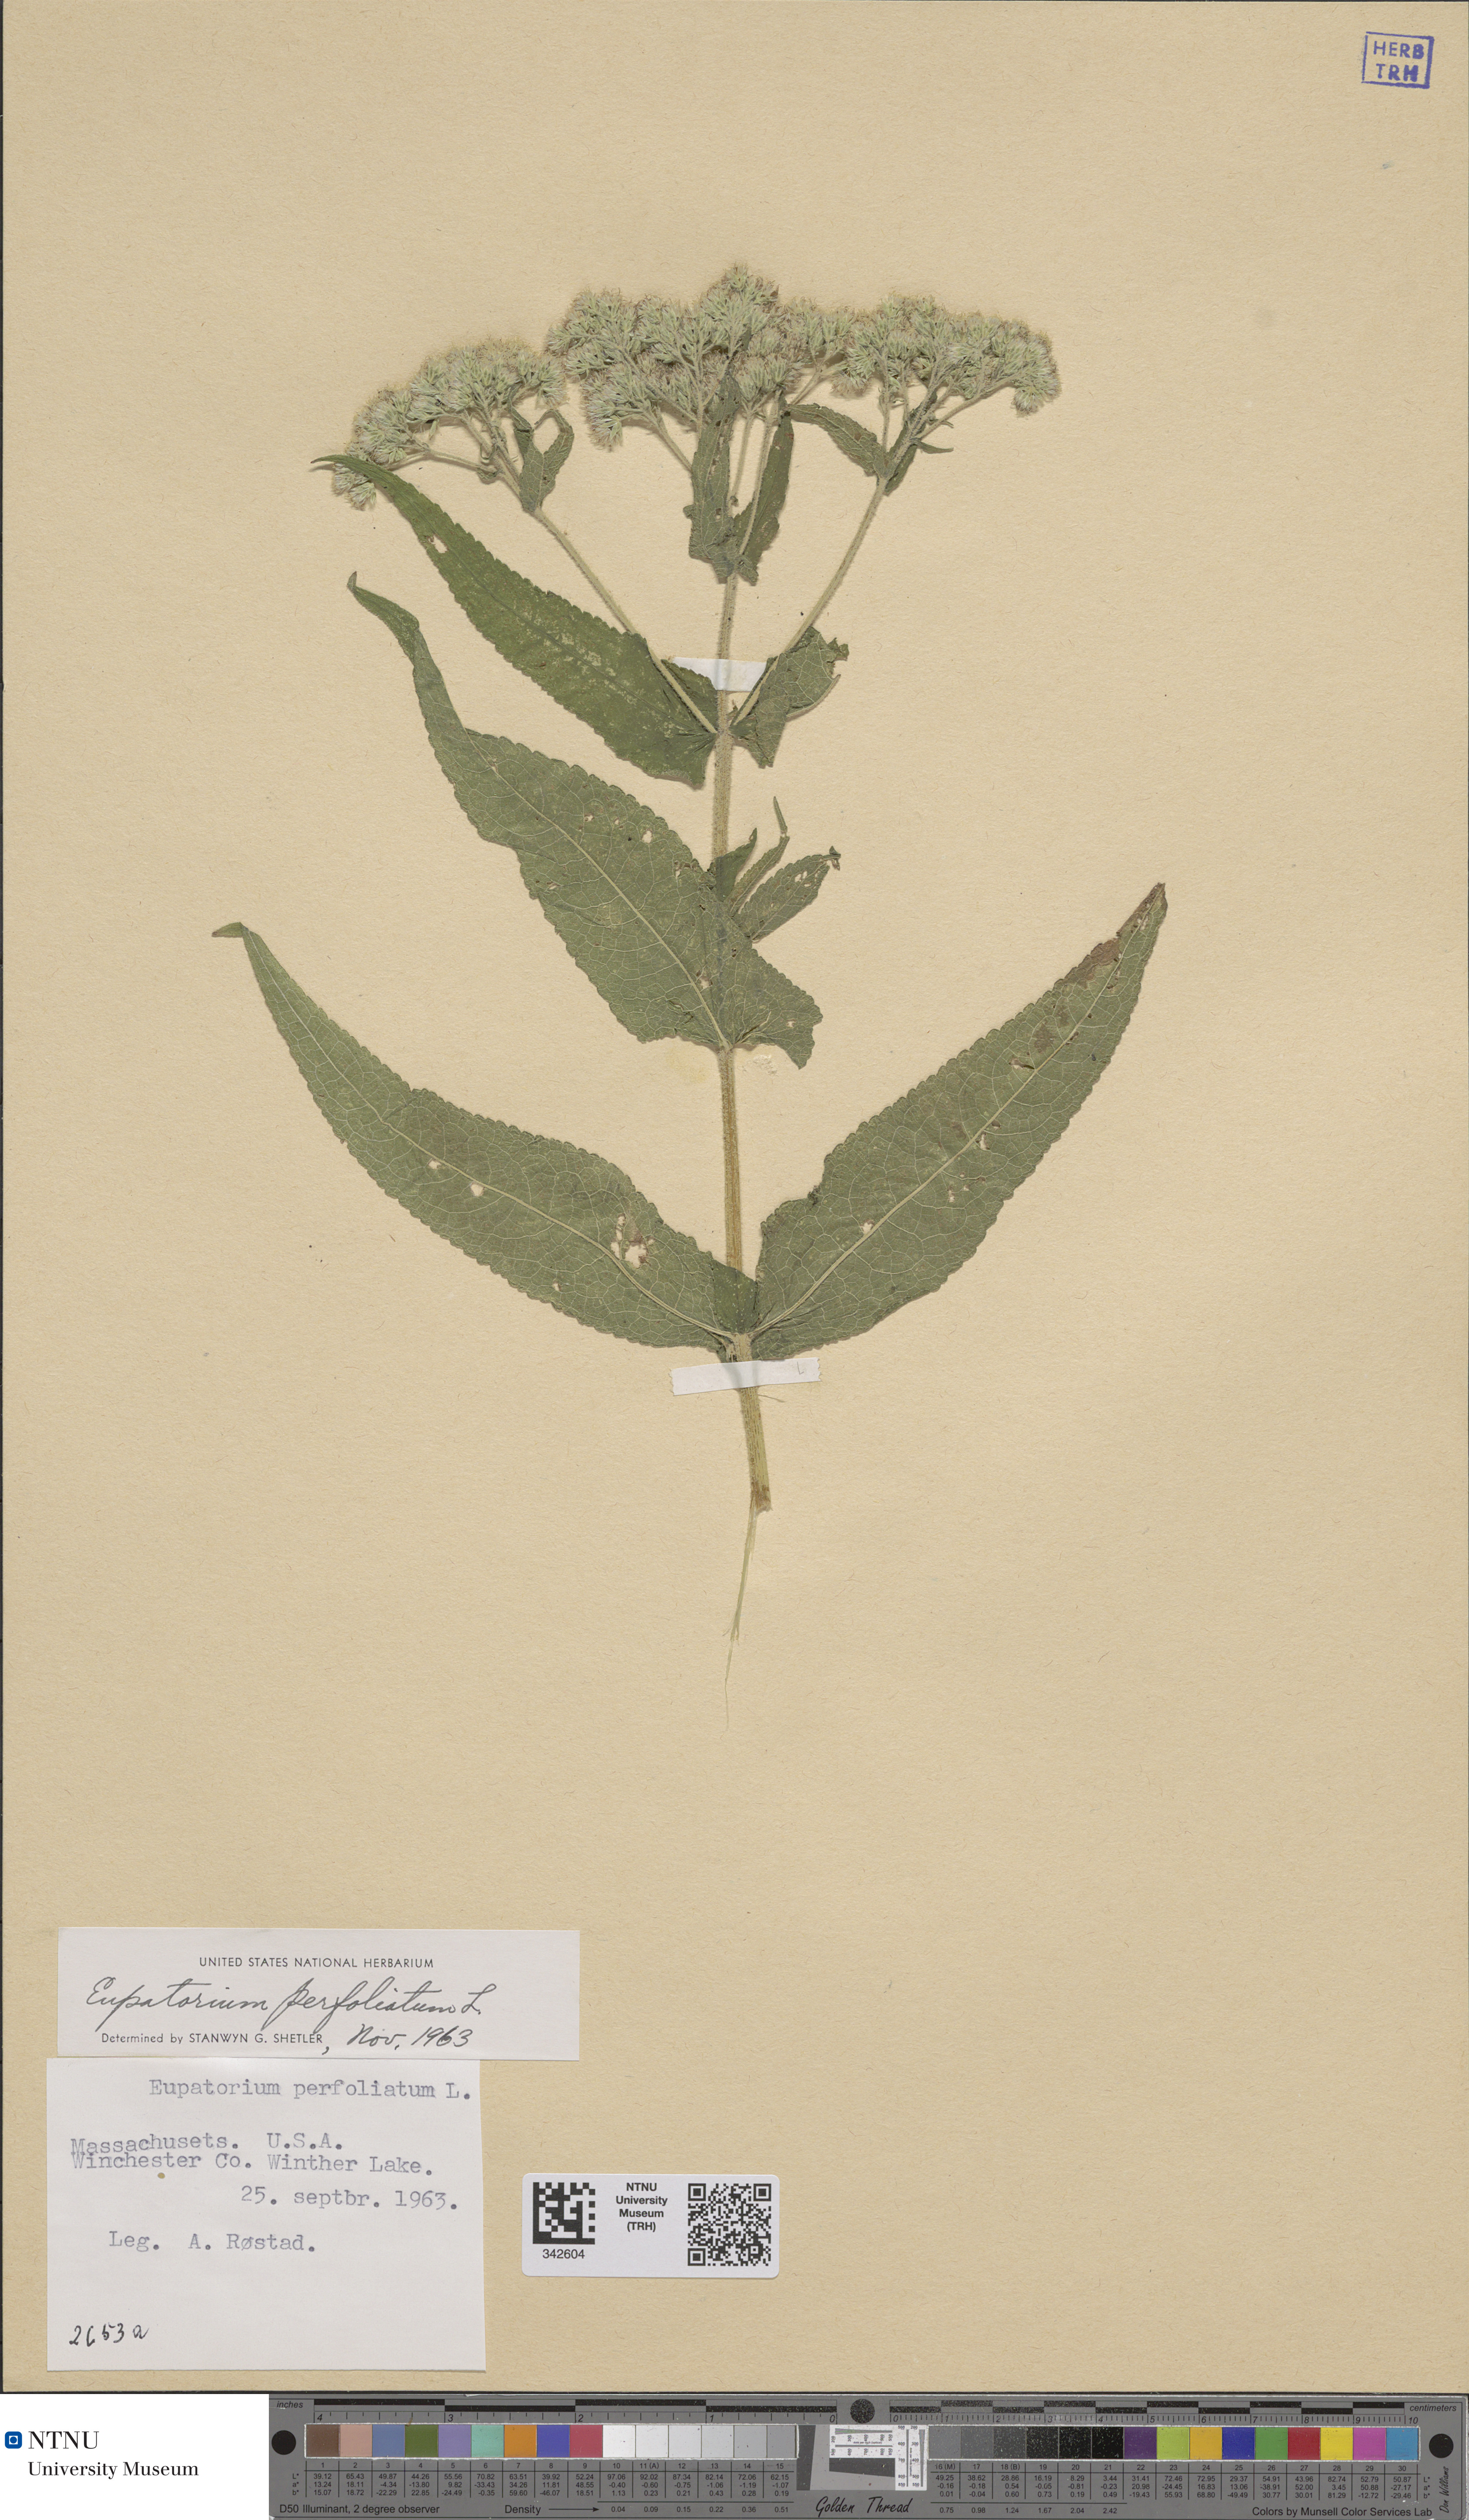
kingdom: Plantae
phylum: Tracheophyta
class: Magnoliopsida
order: Asterales
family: Asteraceae
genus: Eupatorium
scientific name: Eupatorium perfoliatum
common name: Boneset
